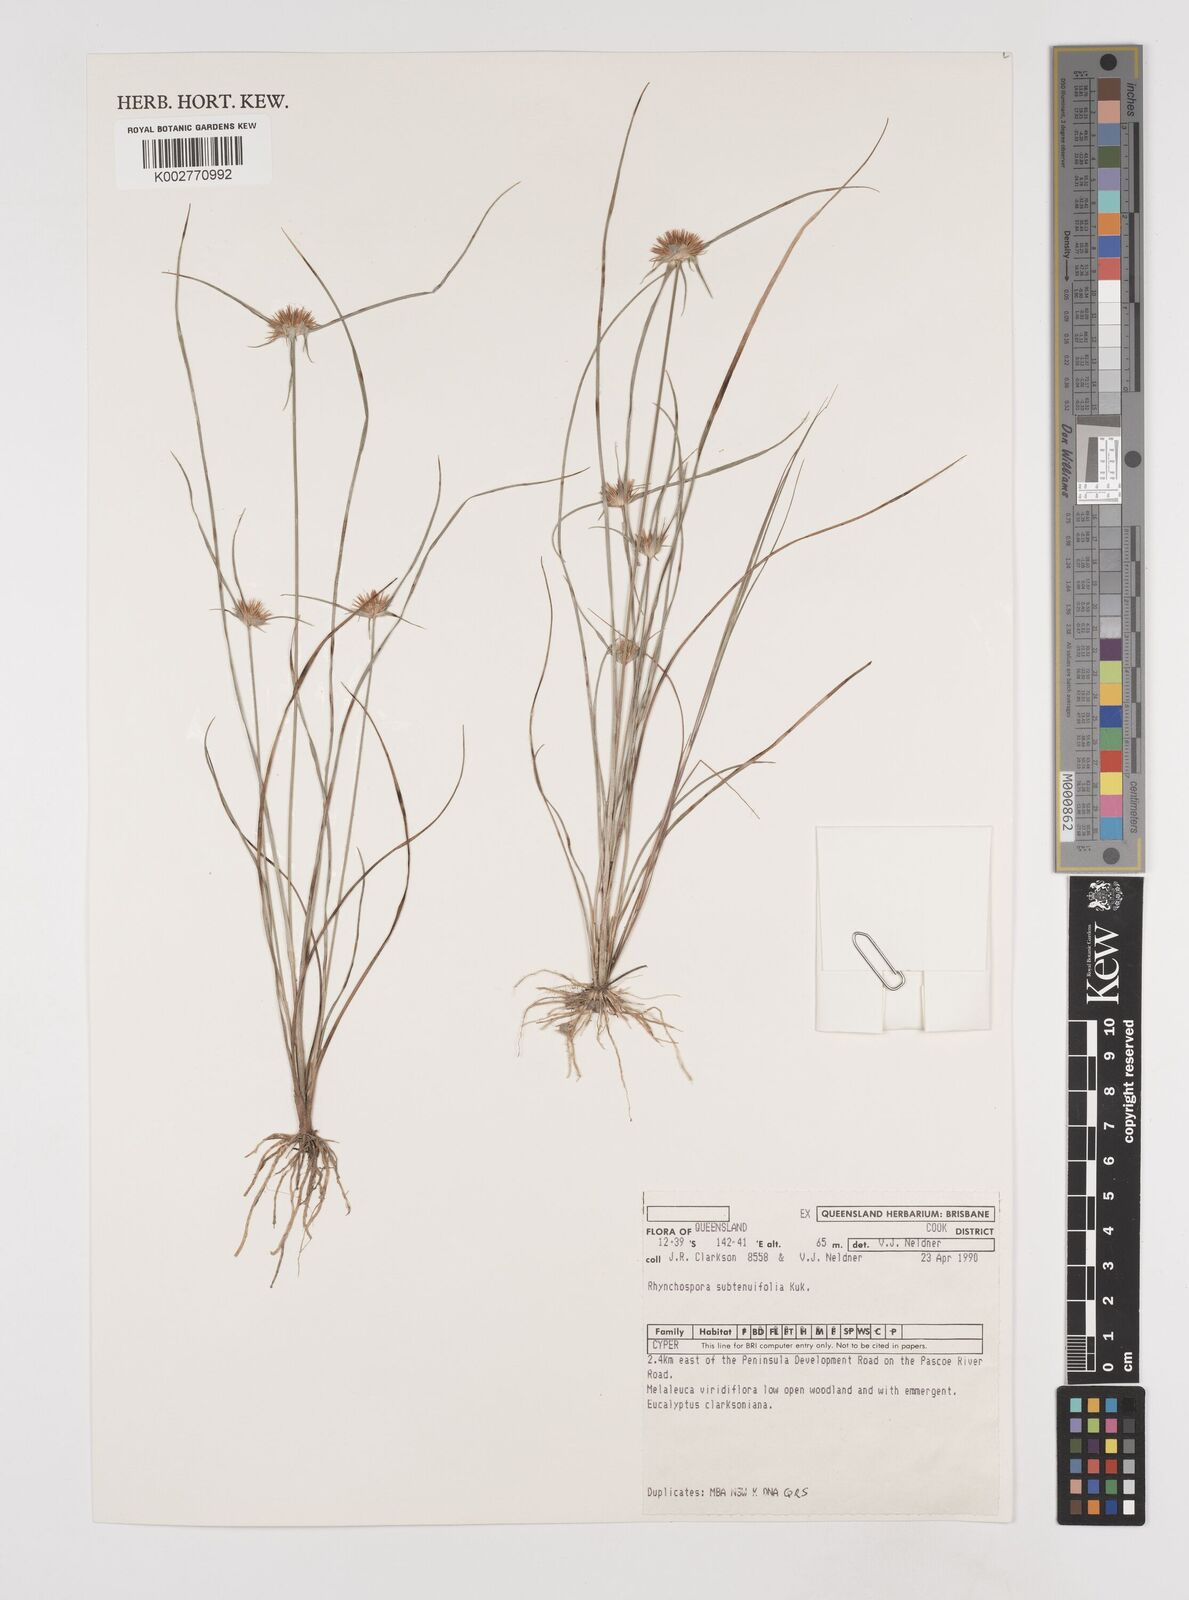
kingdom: Plantae
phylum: Tracheophyta
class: Liliopsida
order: Poales
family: Cyperaceae
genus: Rhynchospora
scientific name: Rhynchospora subtenuifolia
